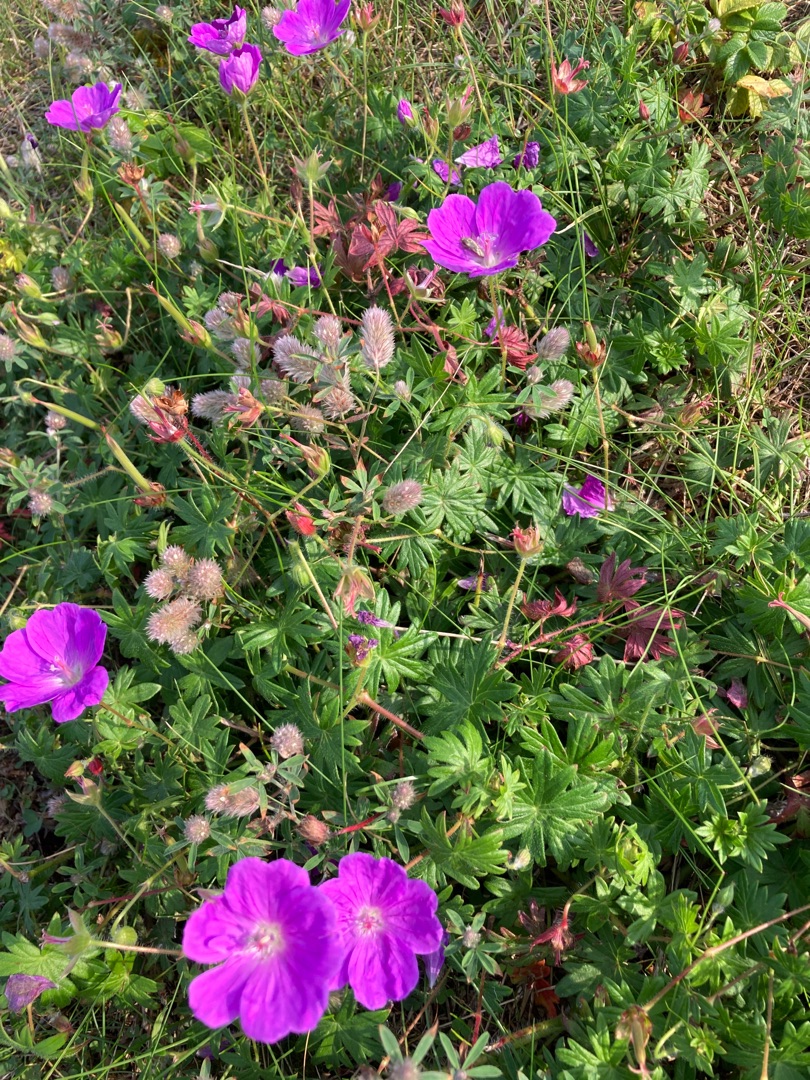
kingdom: Plantae
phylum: Tracheophyta
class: Magnoliopsida
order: Geraniales
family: Geraniaceae
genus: Geranium
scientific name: Geranium sanguineum
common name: Blodrød storkenæb
